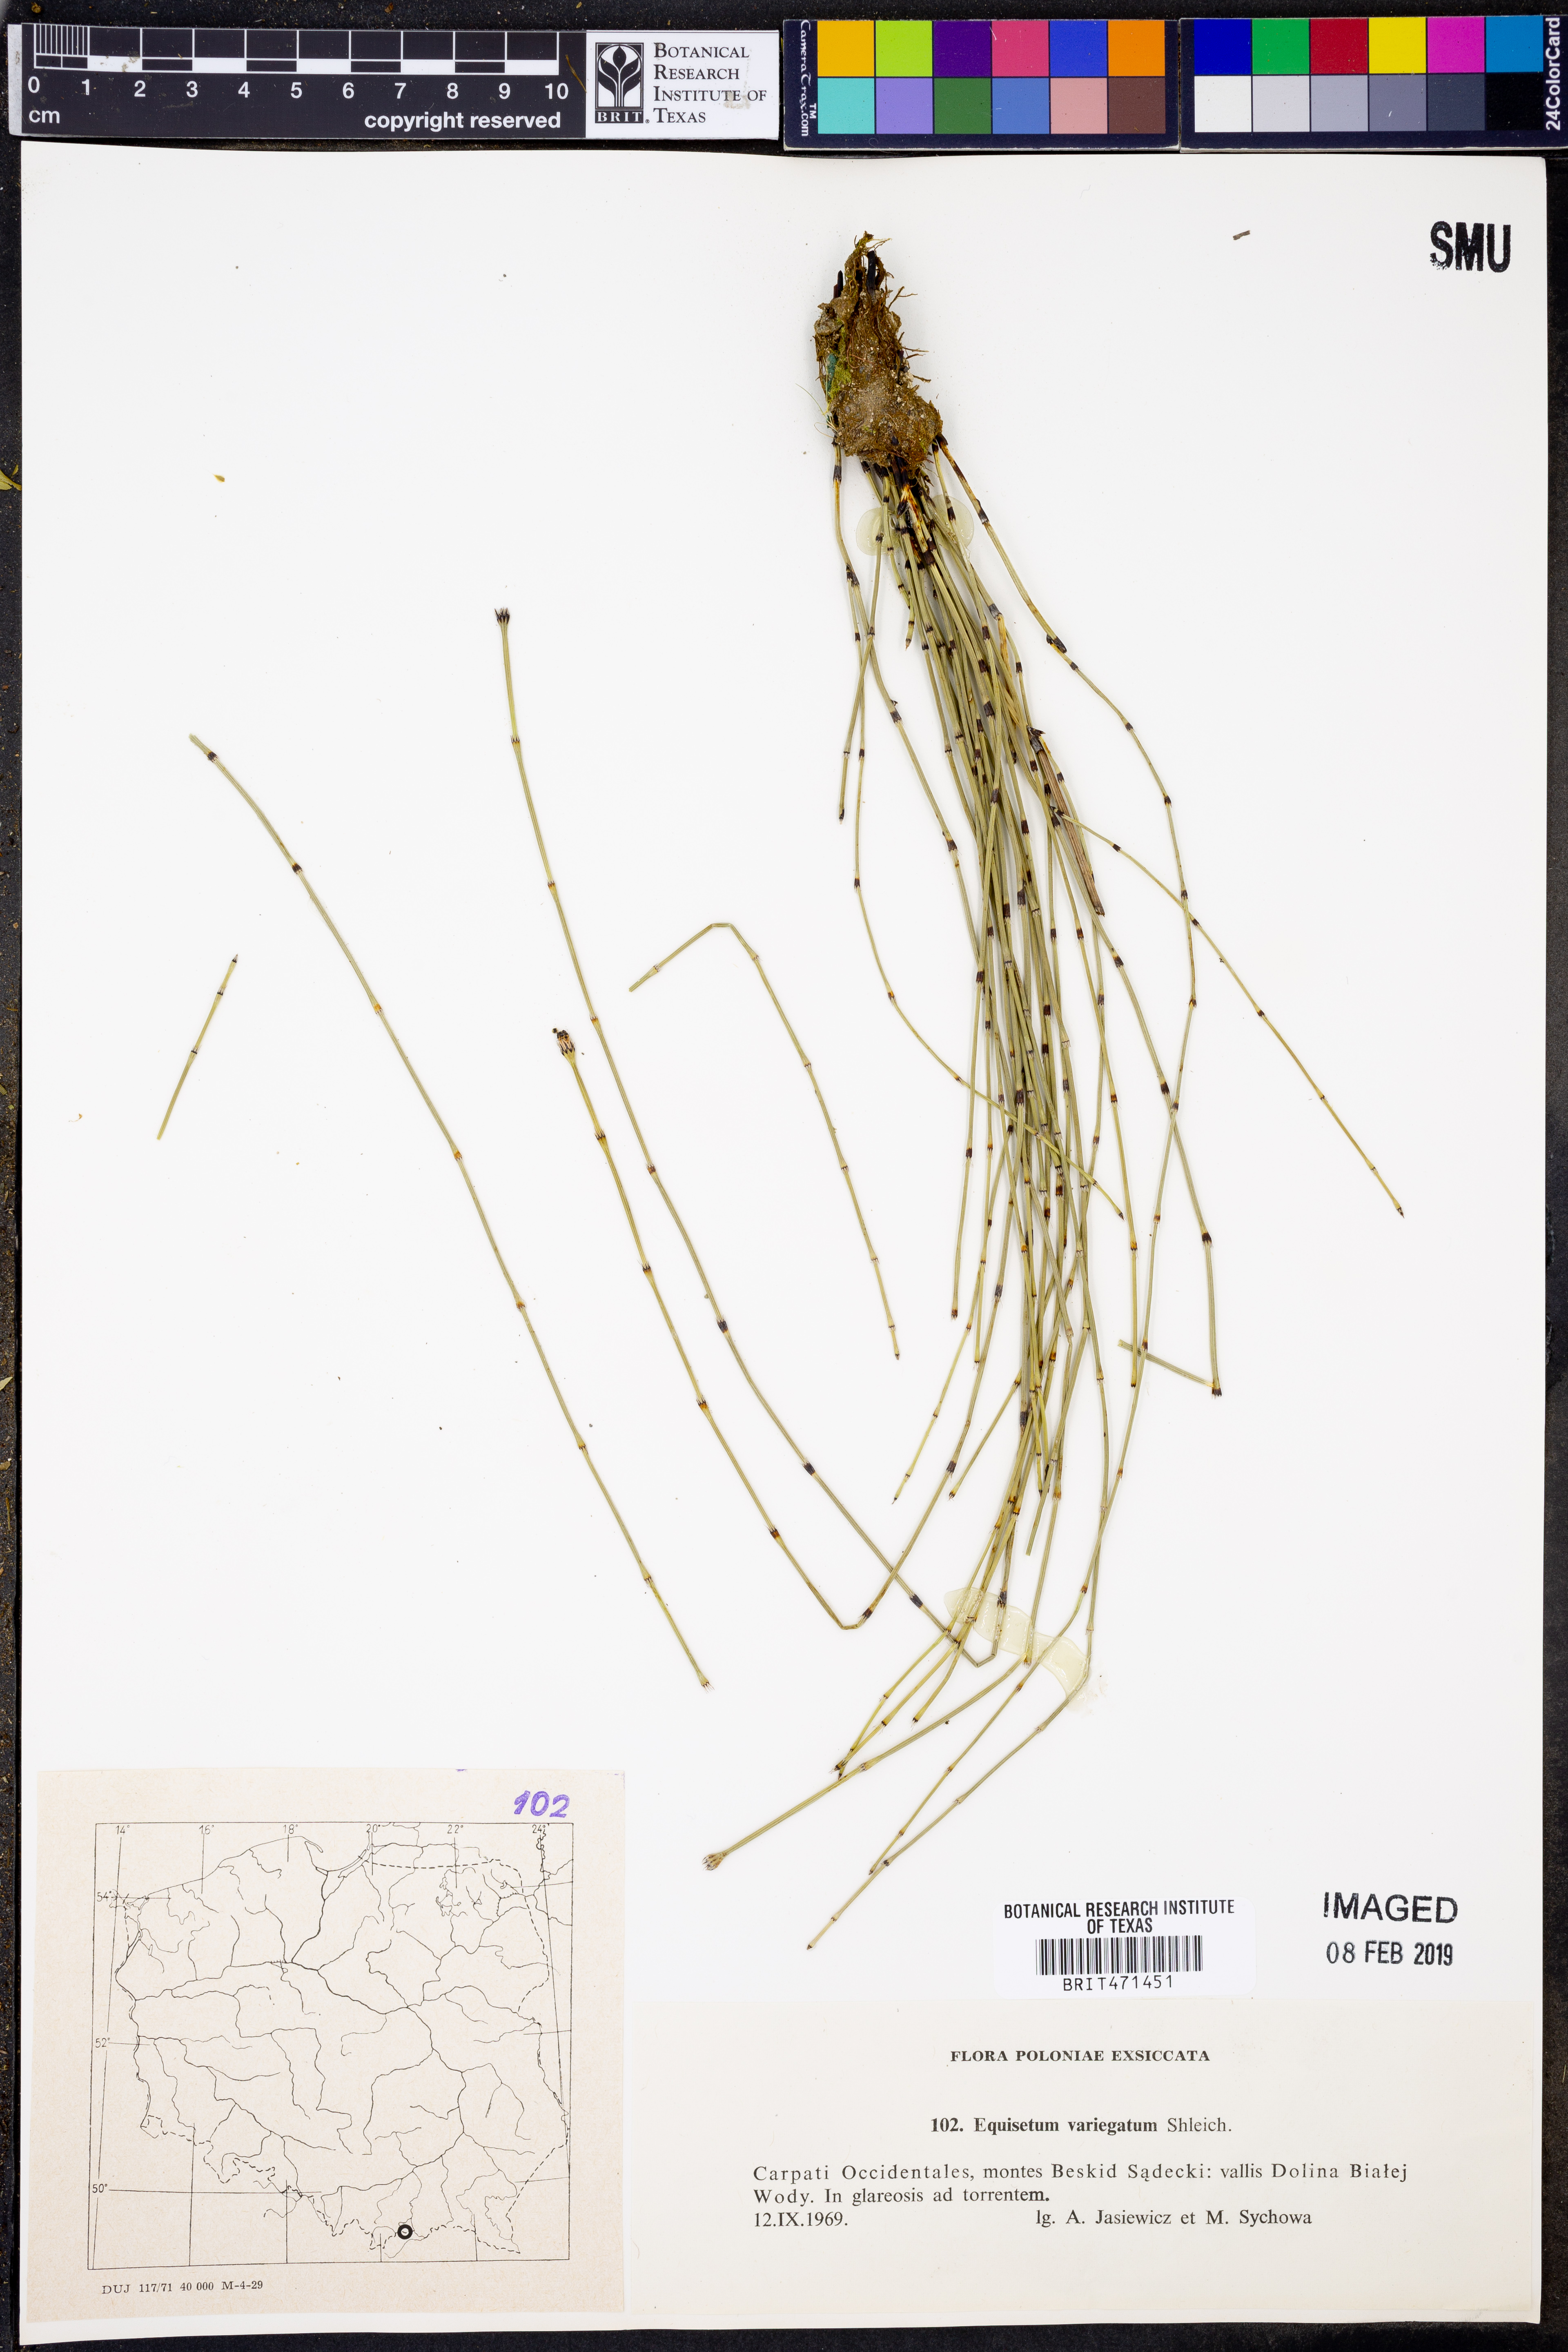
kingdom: Plantae
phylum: Tracheophyta
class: Polypodiopsida
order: Equisetales
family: Equisetaceae
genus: Equisetum
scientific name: Equisetum variegatum
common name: Variegated horsetail
